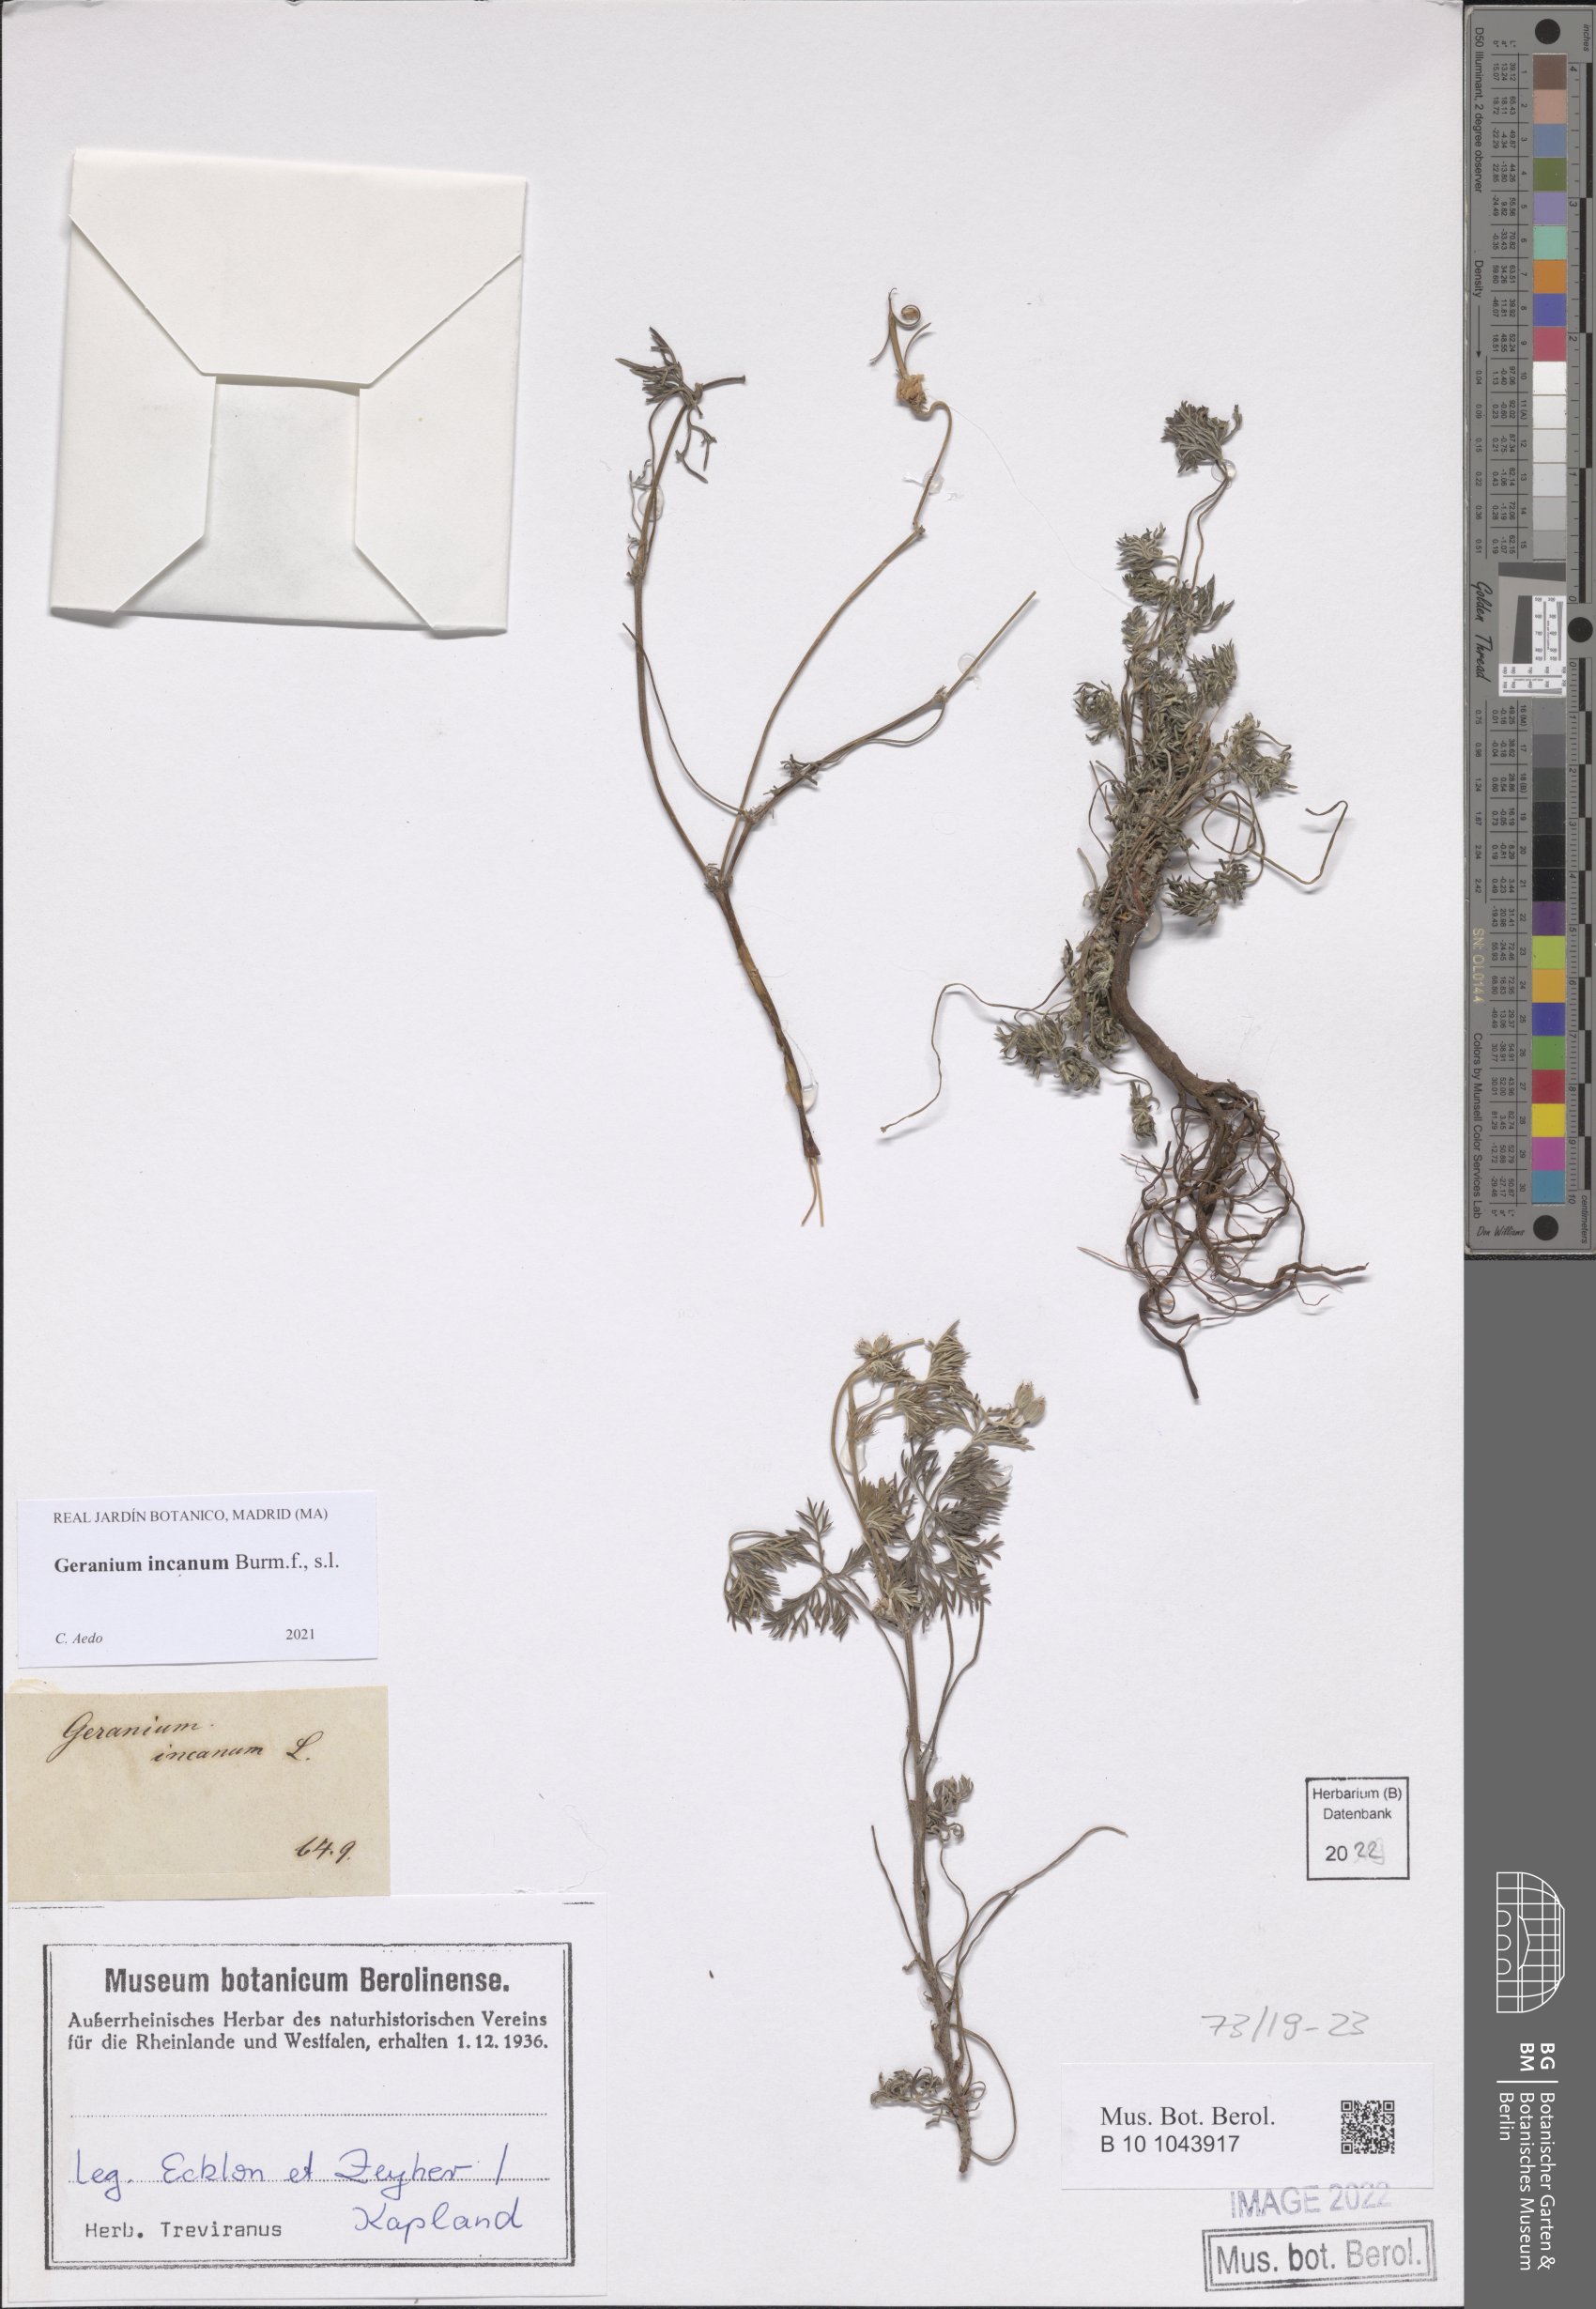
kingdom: Plantae
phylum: Tracheophyta
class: Magnoliopsida
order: Geraniales
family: Geraniaceae
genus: Geranium
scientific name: Geranium incanum
